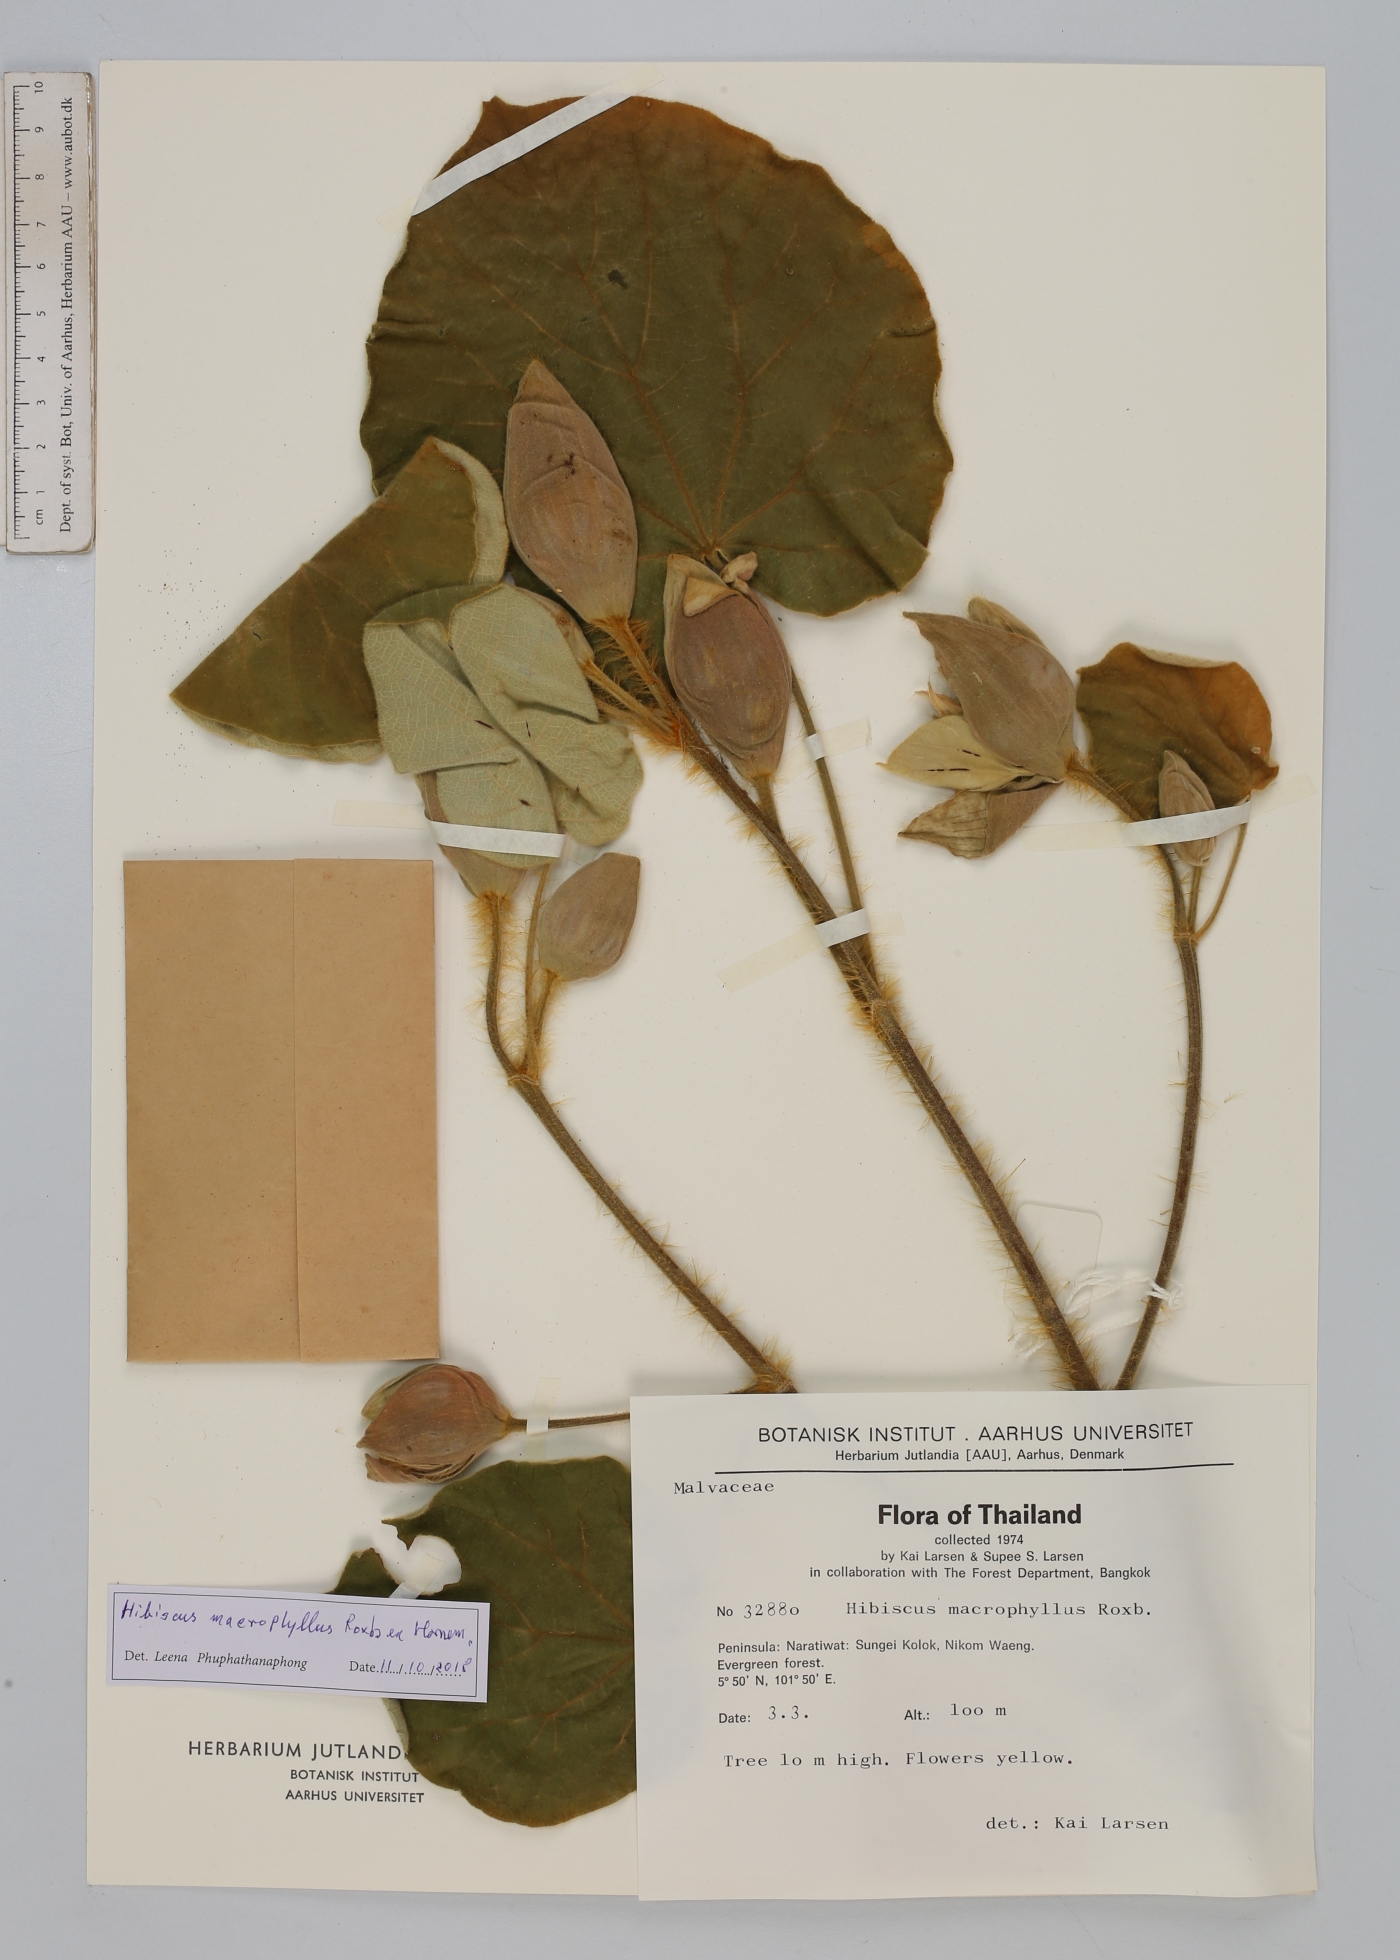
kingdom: Plantae
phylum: Tracheophyta
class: Magnoliopsida
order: Malvales
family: Malvaceae
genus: Talipariti
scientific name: Talipariti macrophyllum
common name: Largeleaf rosemallow
